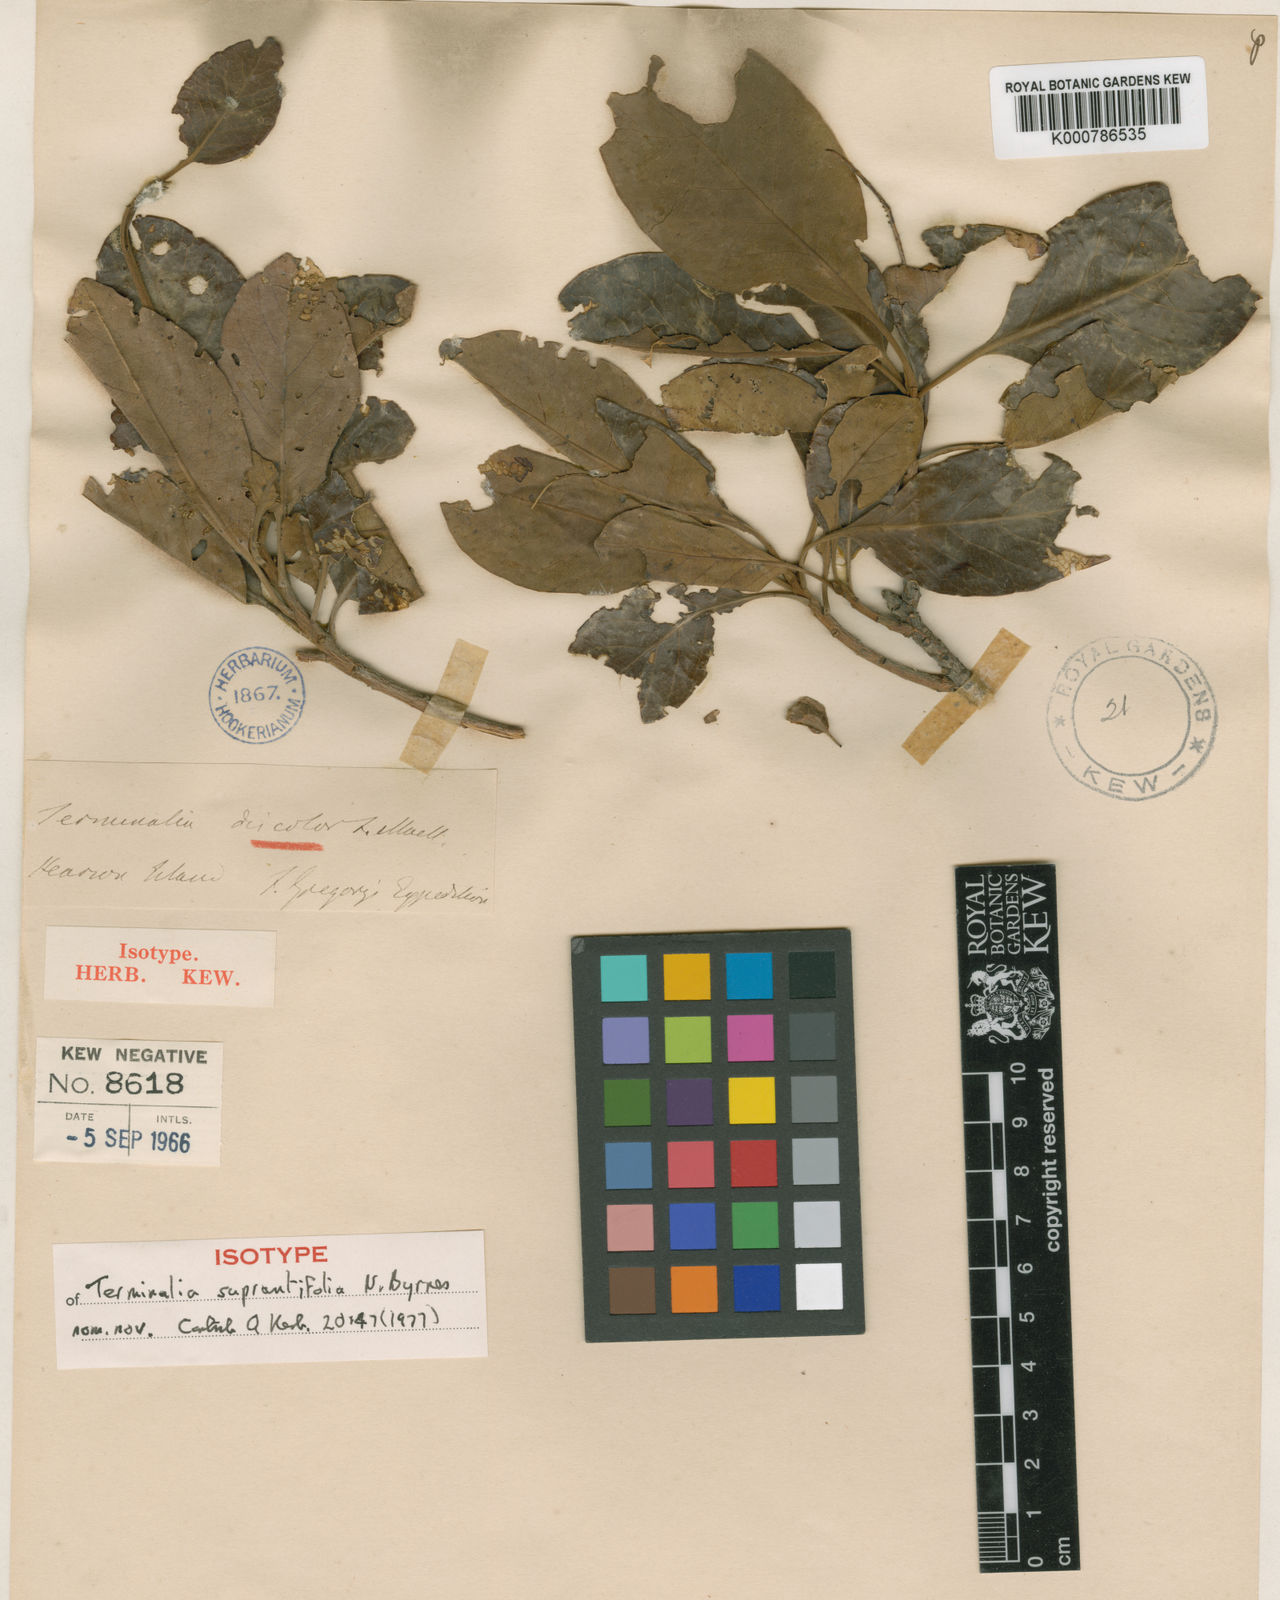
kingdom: Plantae
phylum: Tracheophyta
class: Magnoliopsida
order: Myrtales
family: Combretaceae
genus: Terminalia
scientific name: Terminalia supranitifolia
